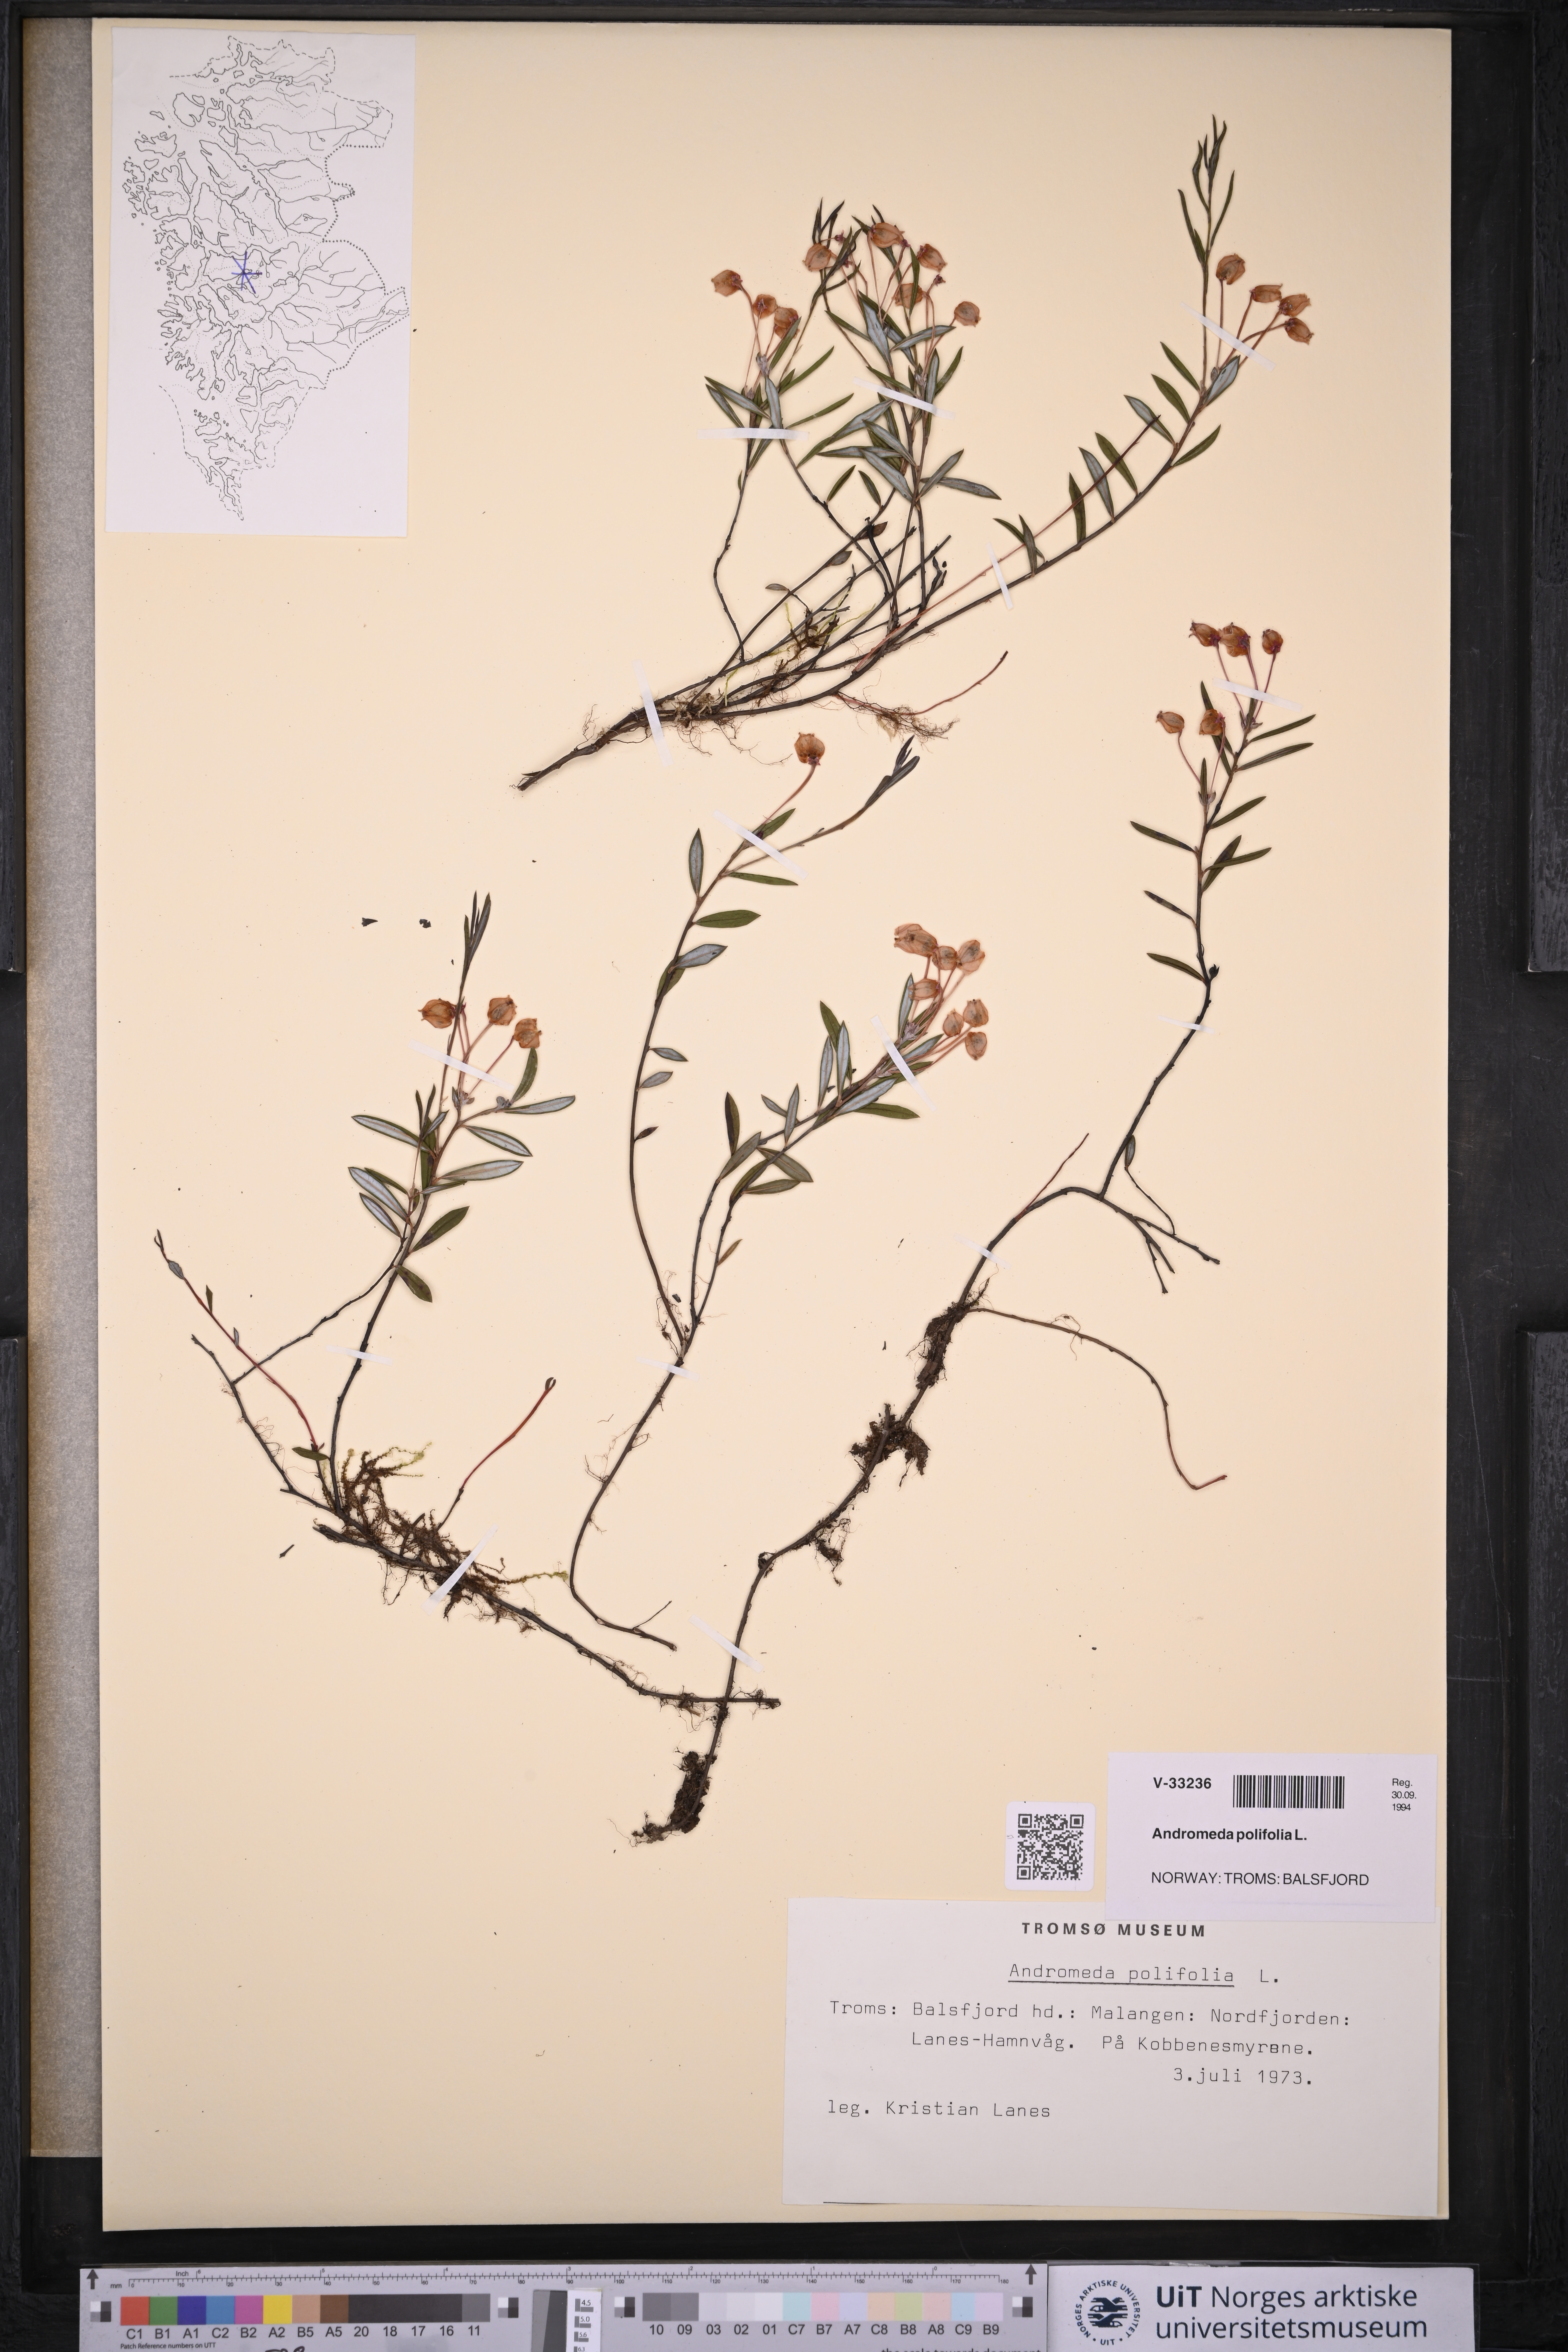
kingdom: Plantae
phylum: Tracheophyta
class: Magnoliopsida
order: Ericales
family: Ericaceae
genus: Andromeda
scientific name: Andromeda polifolia
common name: Bog-rosemary
